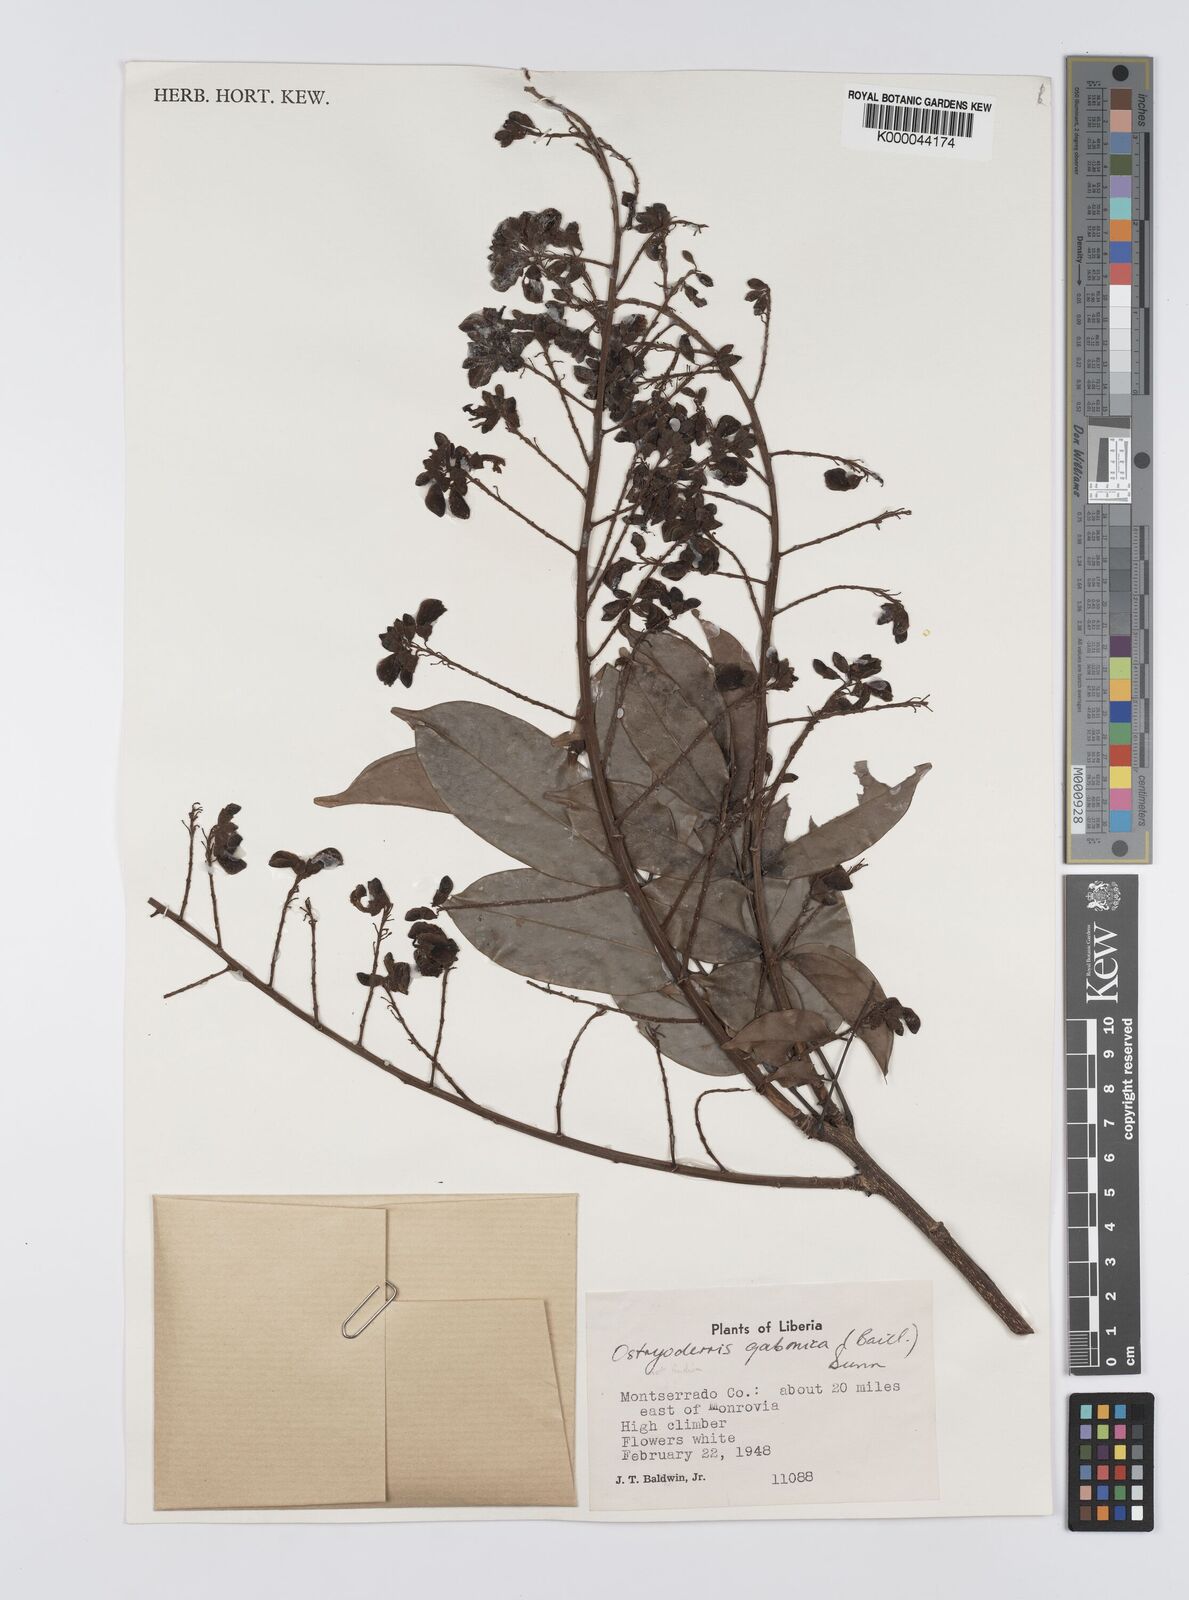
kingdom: Plantae
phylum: Tracheophyta
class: Magnoliopsida
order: Fabales
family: Fabaceae
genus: Aganope
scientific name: Aganope gabonica
